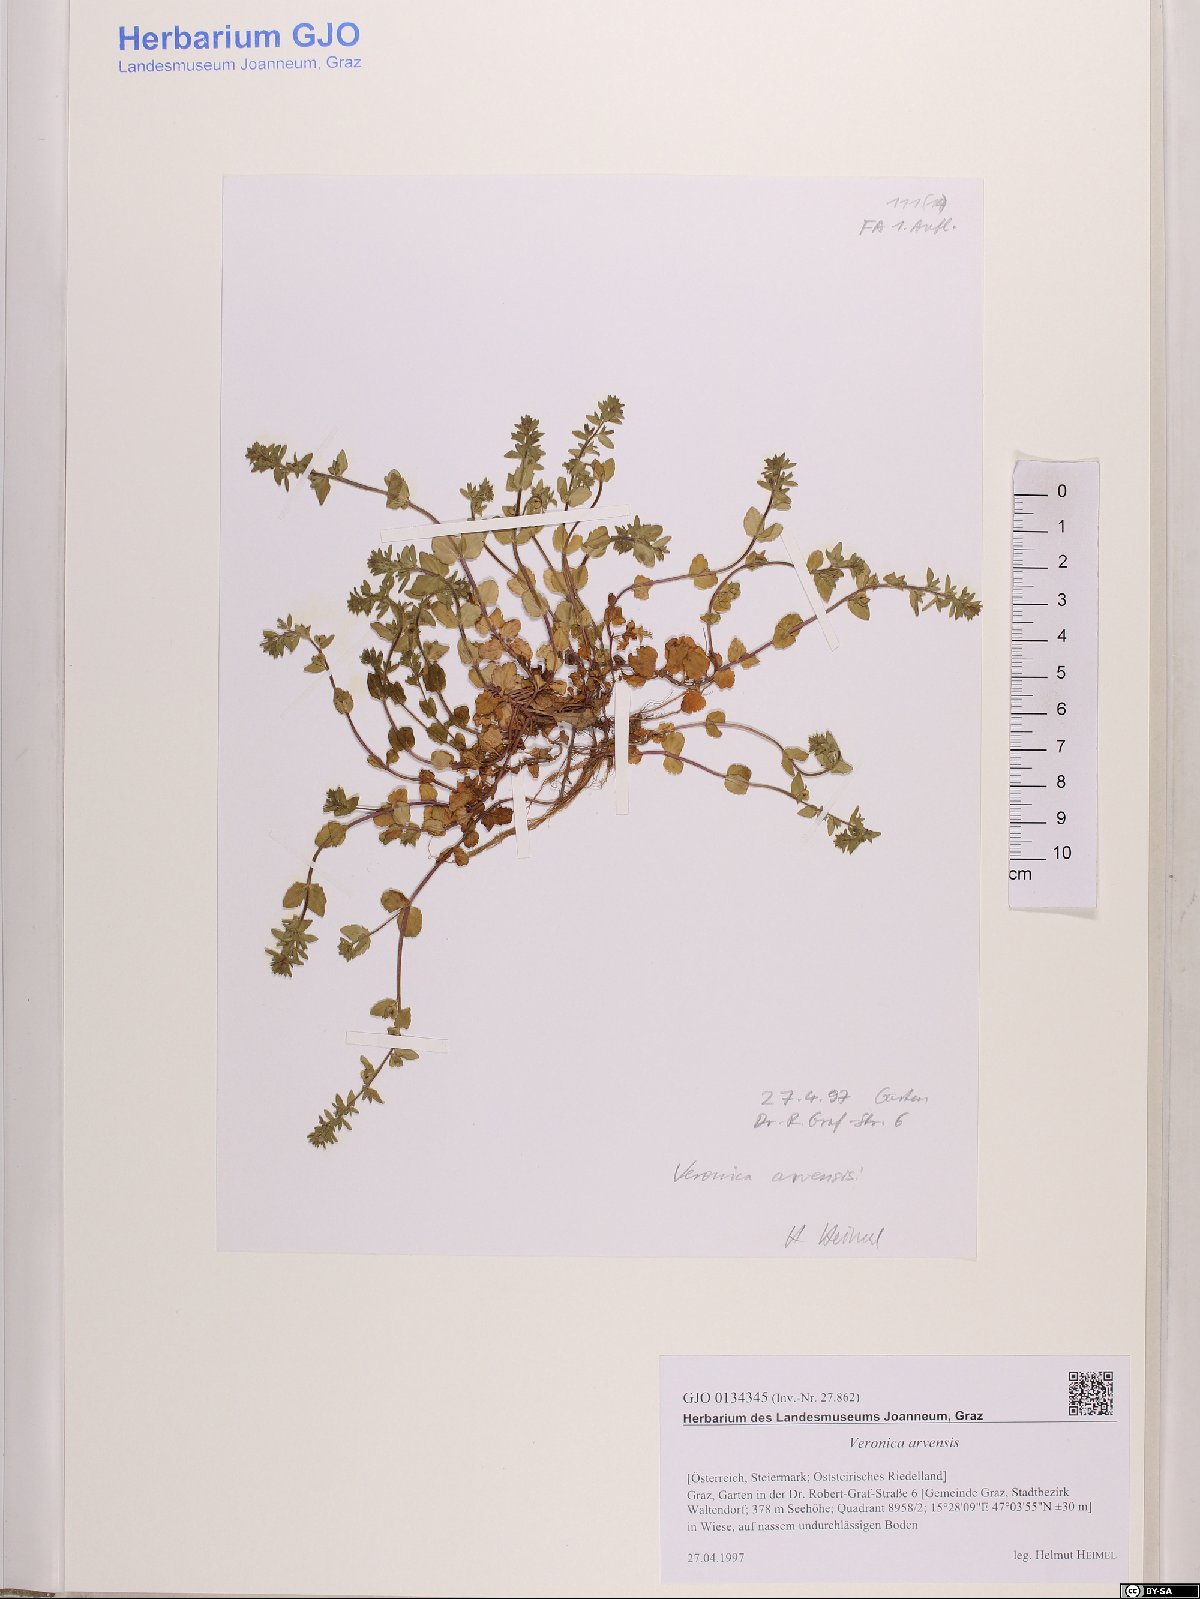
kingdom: Plantae
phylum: Tracheophyta
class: Magnoliopsida
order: Lamiales
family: Plantaginaceae
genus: Veronica
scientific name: Veronica arvensis
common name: Corn speedwell
